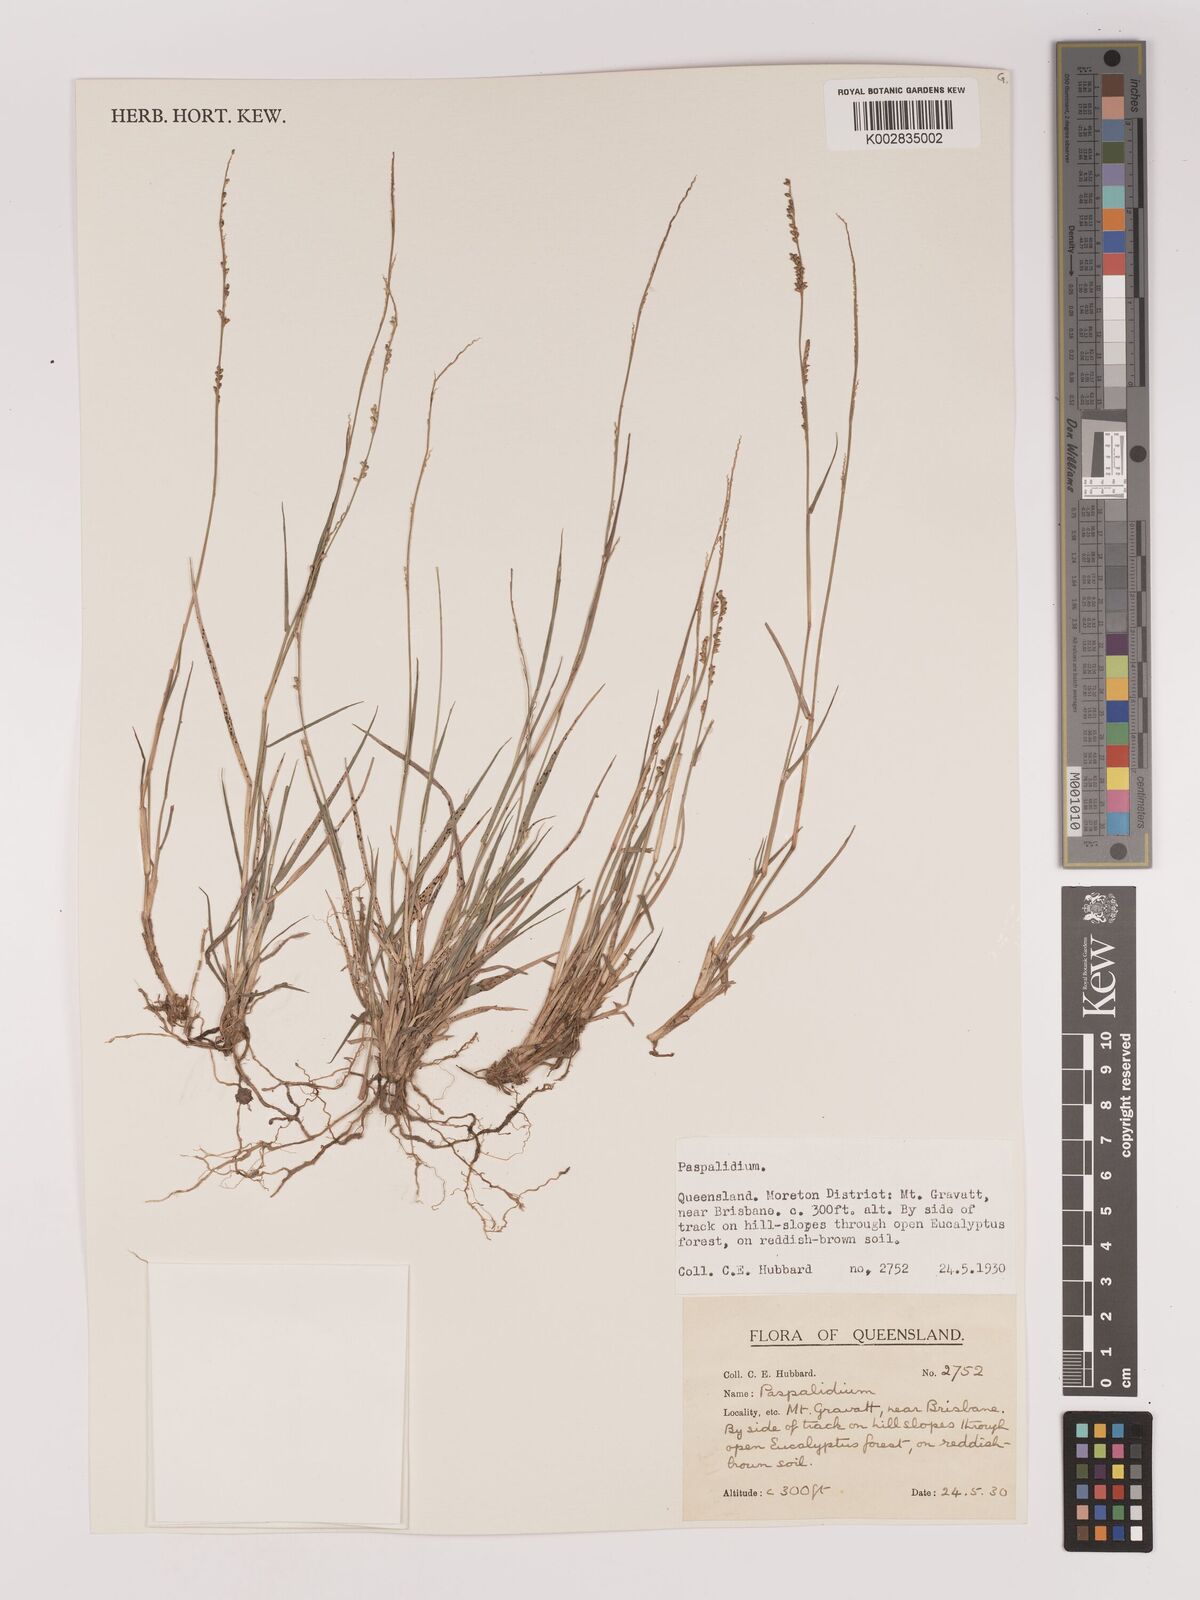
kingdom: Plantae
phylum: Tracheophyta
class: Liliopsida
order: Poales
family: Poaceae
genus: Setaria
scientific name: Setaria
